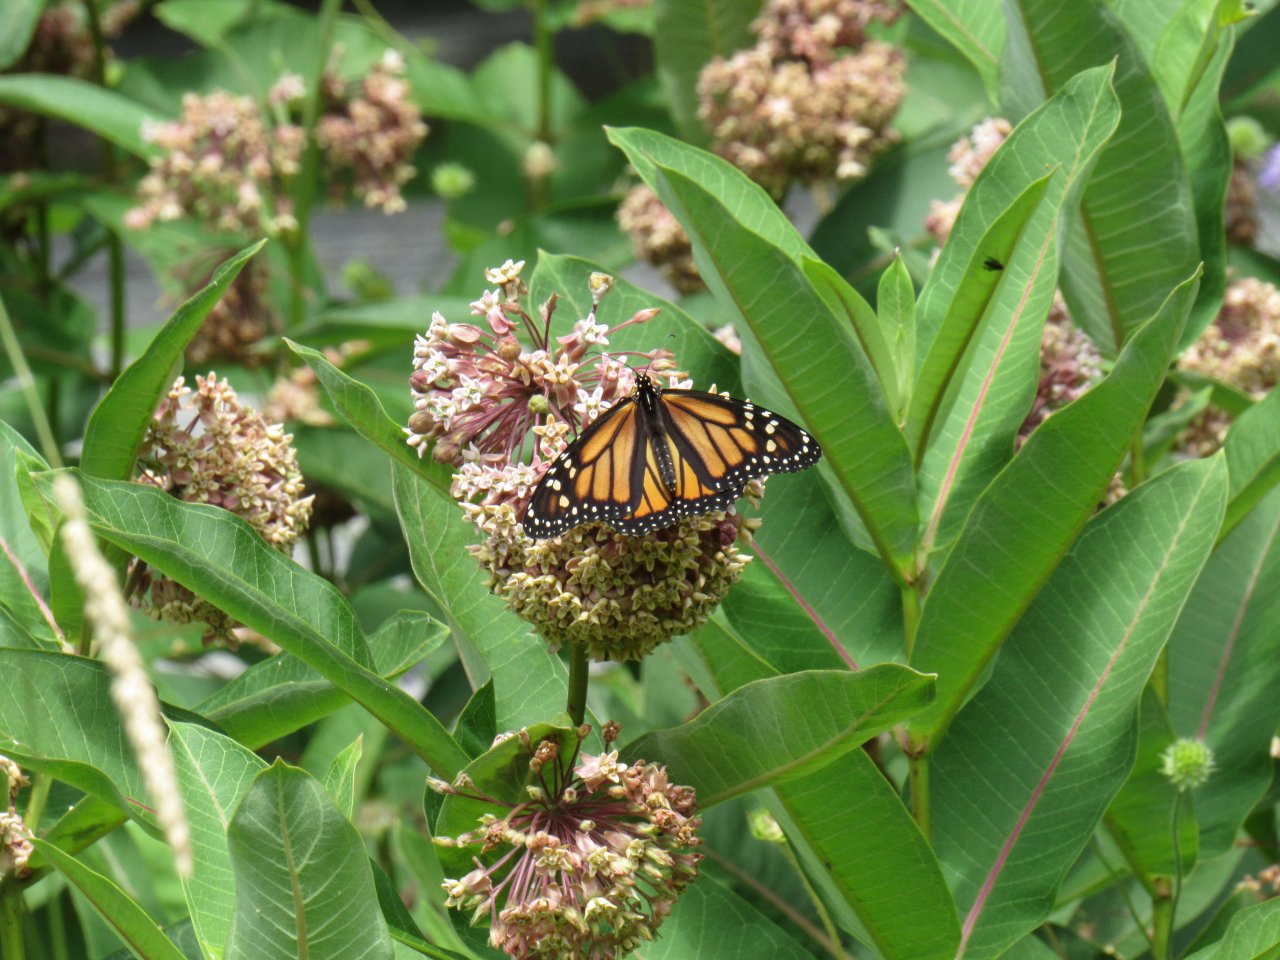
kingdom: Animalia
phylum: Arthropoda
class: Insecta
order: Lepidoptera
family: Nymphalidae
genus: Danaus
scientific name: Danaus plexippus
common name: Monarch
